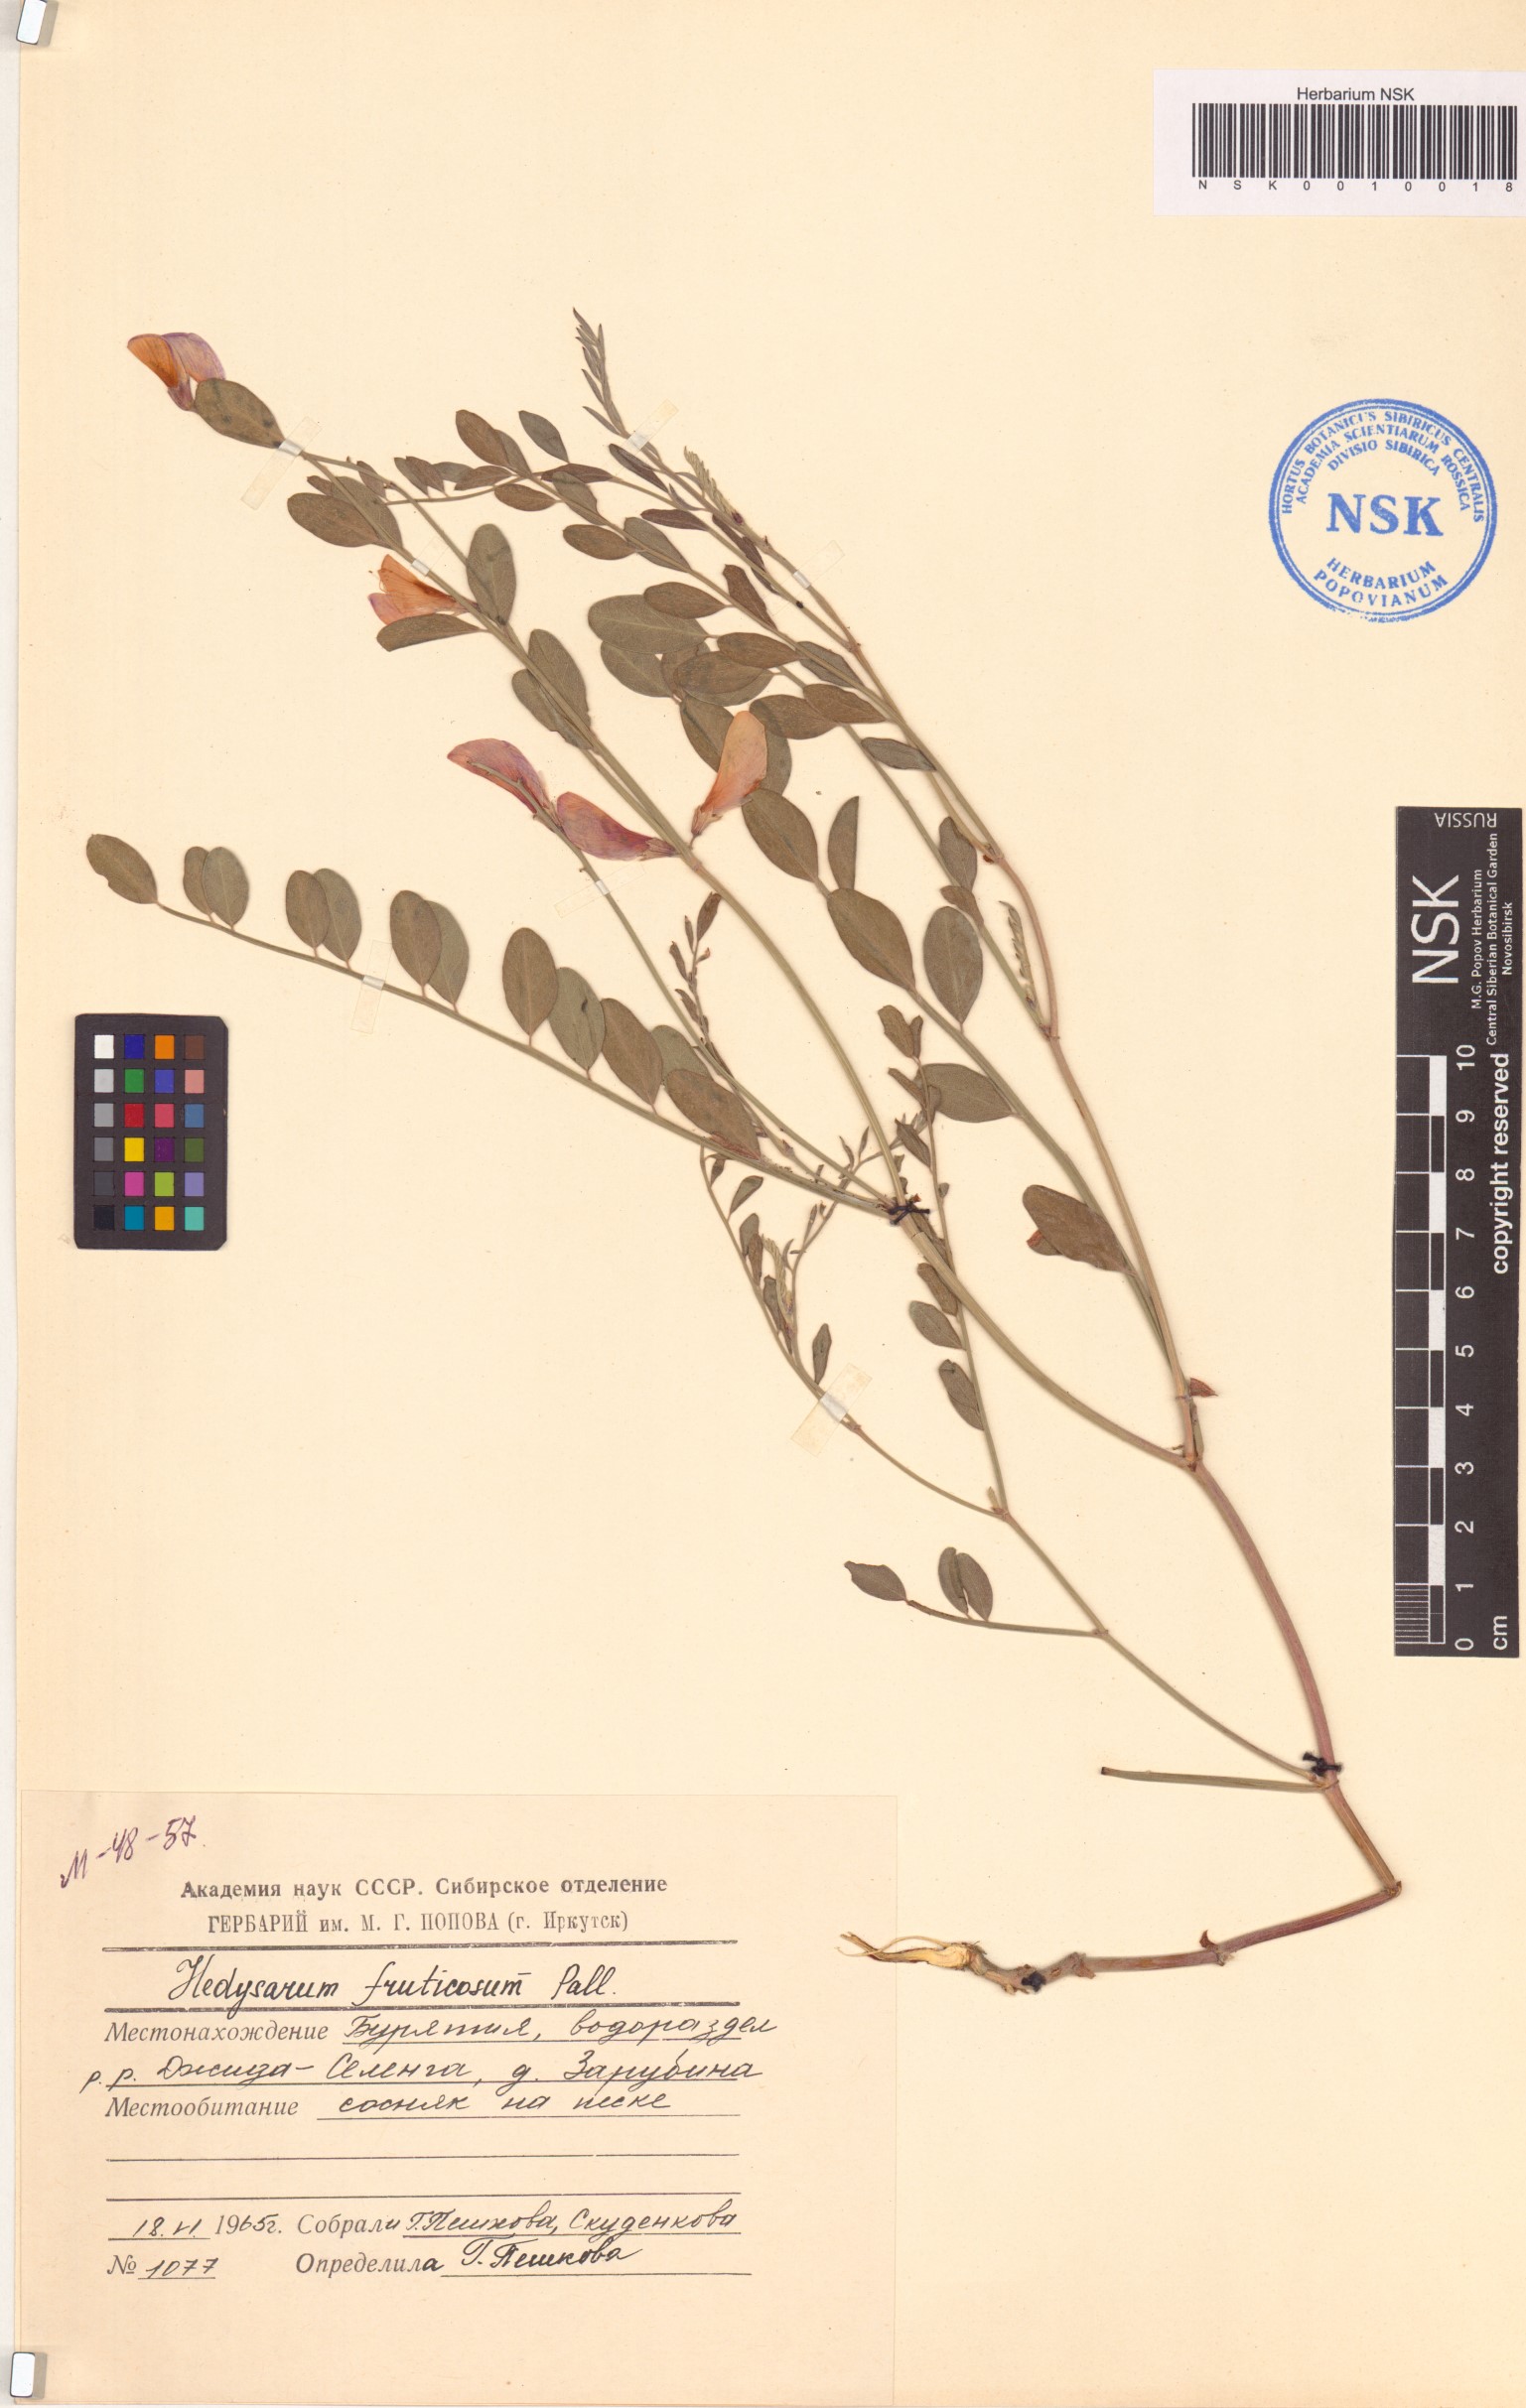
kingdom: Plantae
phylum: Tracheophyta
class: Magnoliopsida
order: Fabales
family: Fabaceae
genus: Corethrodendron
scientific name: Corethrodendron fruticosum
